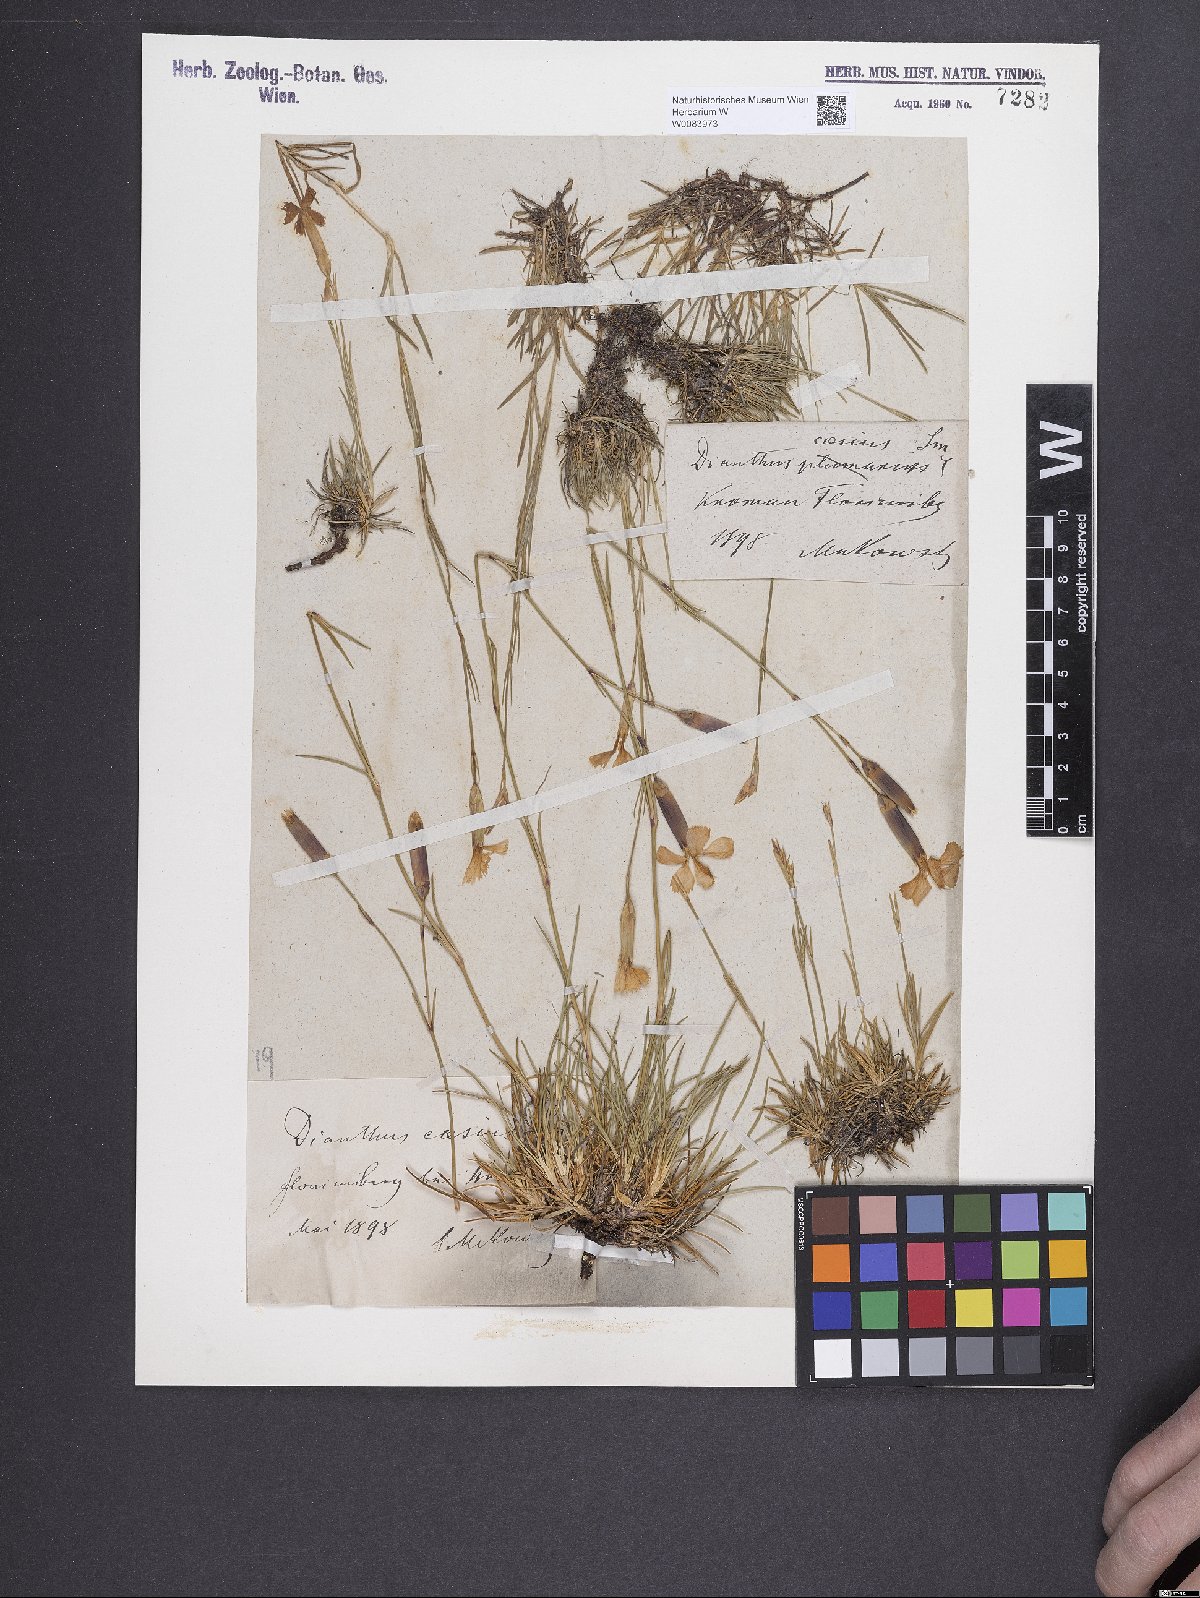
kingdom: Plantae
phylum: Tracheophyta
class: Magnoliopsida
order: Caryophyllales
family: Caryophyllaceae
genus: Dianthus
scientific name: Dianthus gratianopolitanus
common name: Cheddar pink
